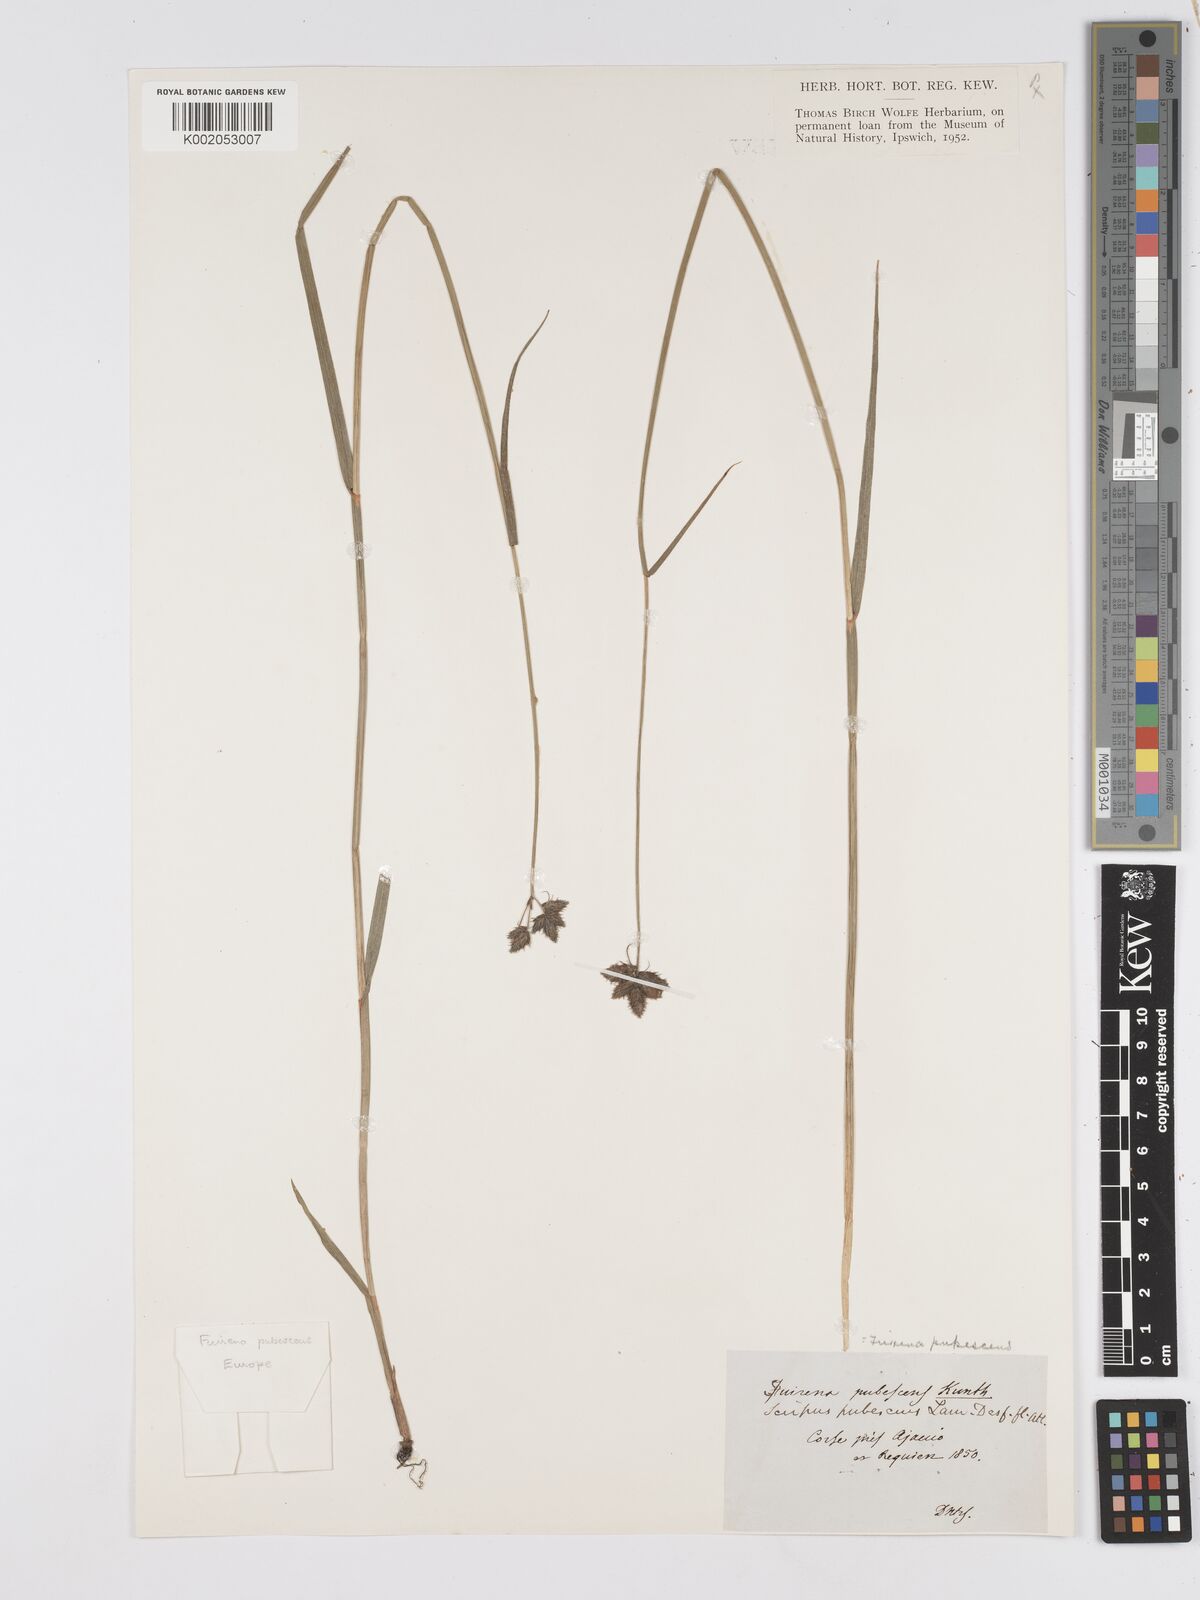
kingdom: Plantae
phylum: Tracheophyta
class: Liliopsida
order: Poales
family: Cyperaceae
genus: Fuirena
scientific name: Fuirena pubescens
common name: Hairy sedge
